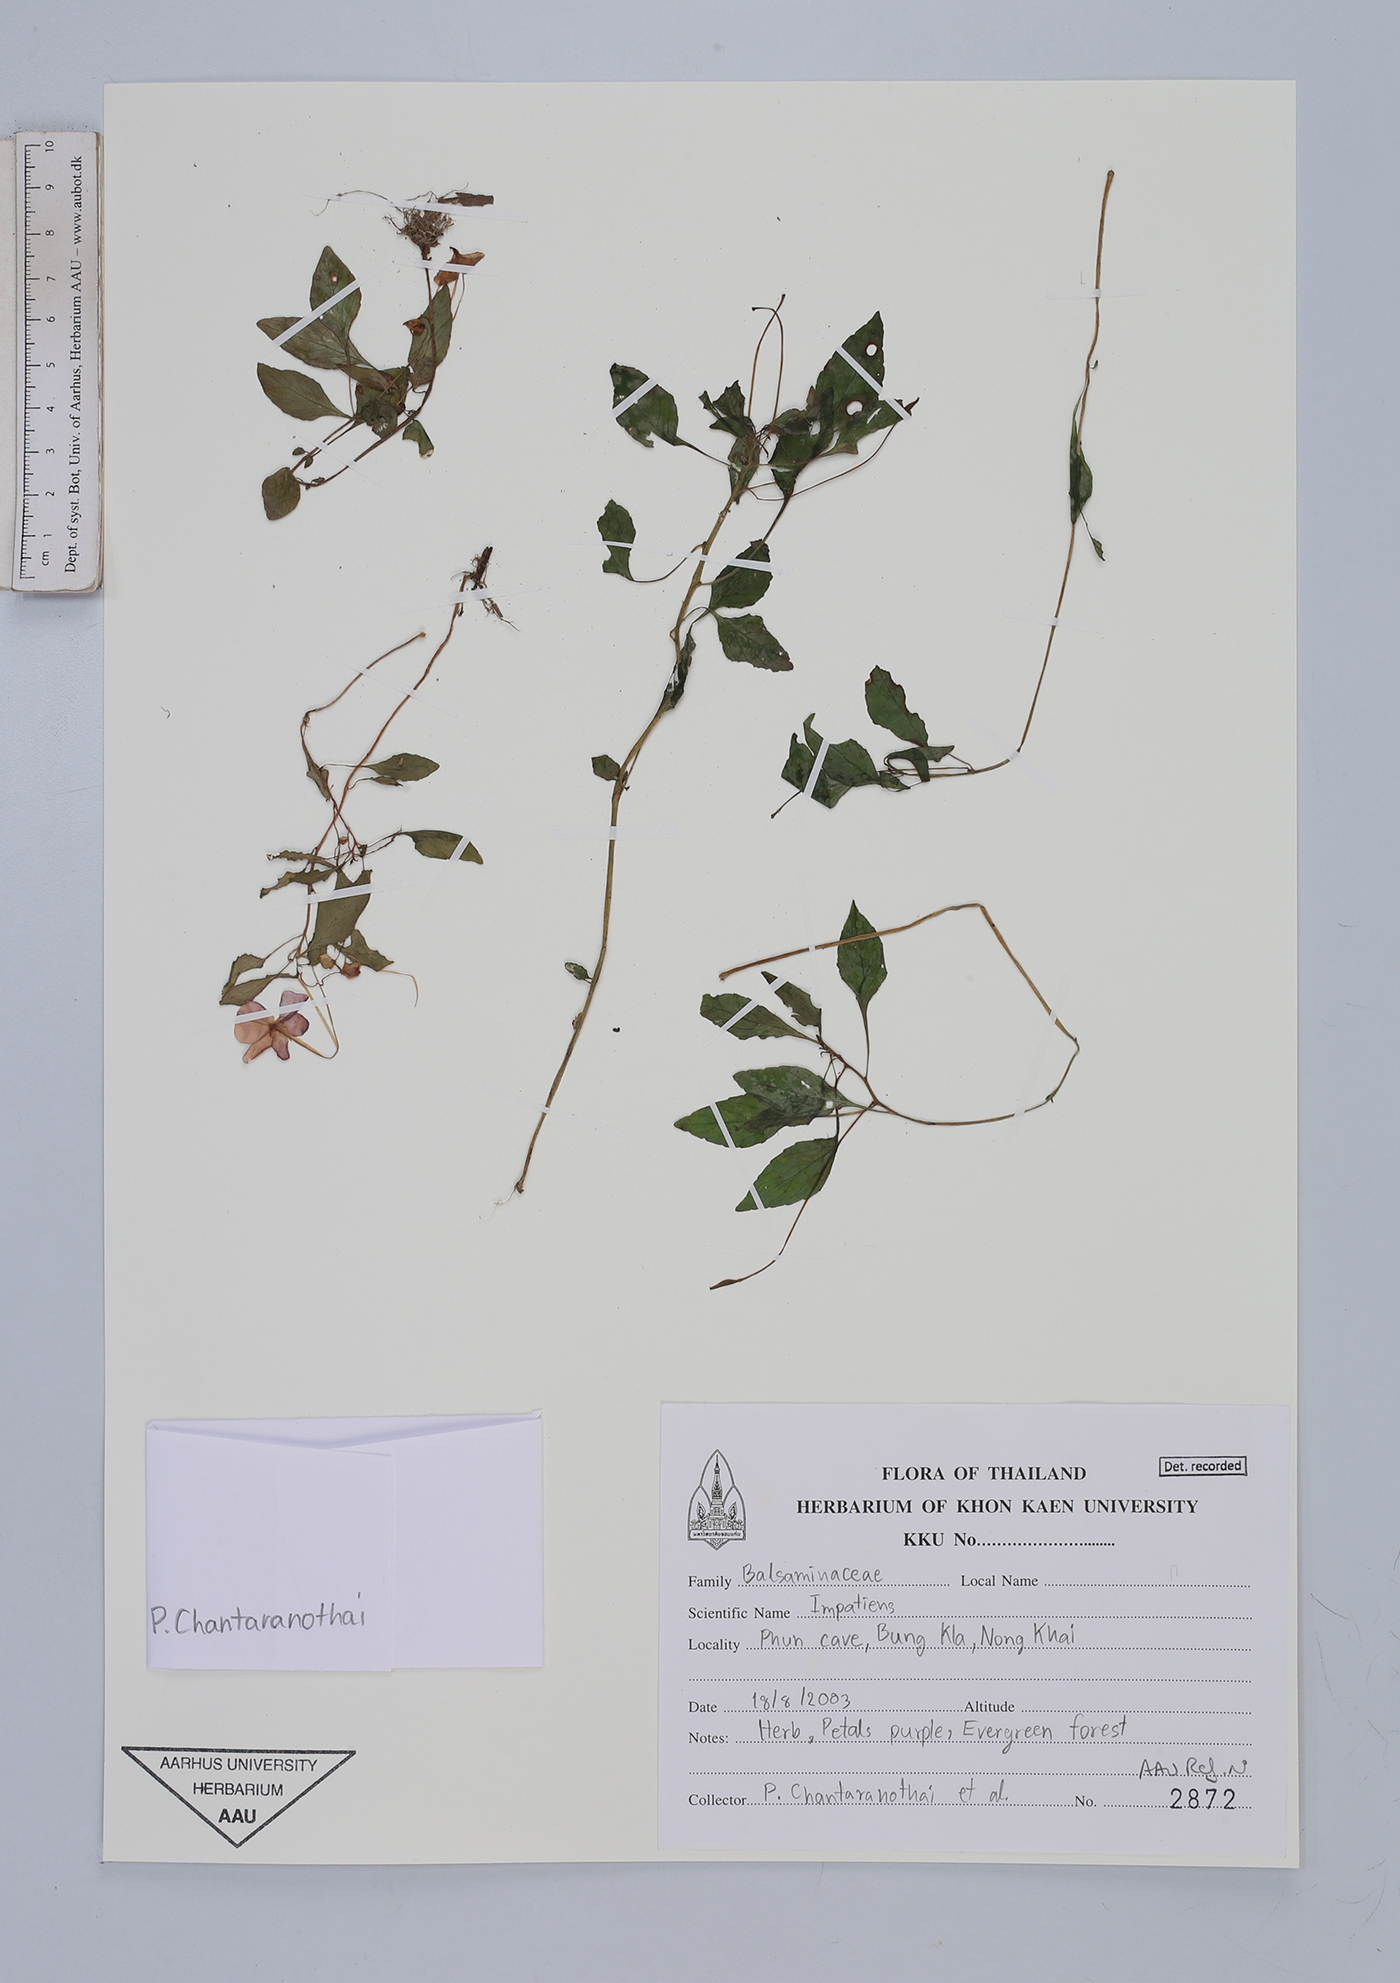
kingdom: Plantae
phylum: Tracheophyta
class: Magnoliopsida
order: Ericales
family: Balsaminaceae
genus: Impatiens
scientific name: Impatiens
